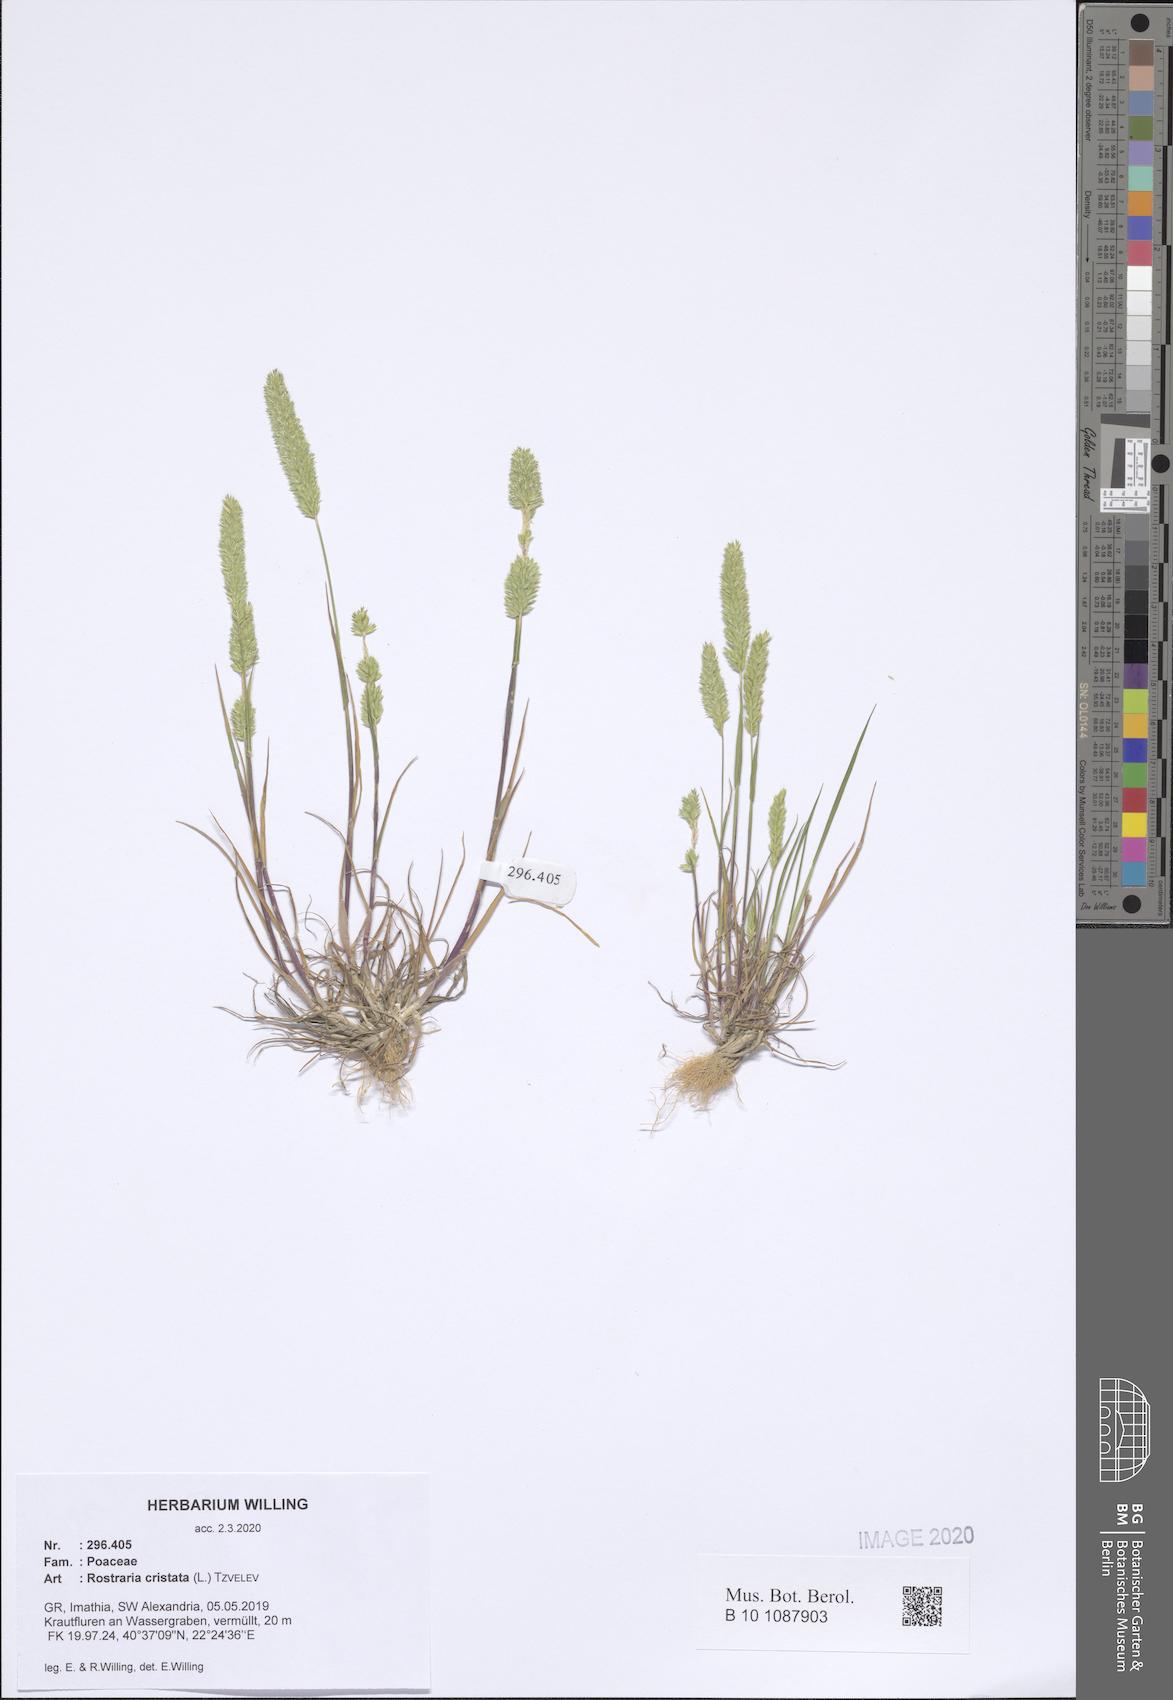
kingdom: Plantae
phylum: Tracheophyta
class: Liliopsida
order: Poales
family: Poaceae
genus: Rostraria
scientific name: Rostraria cristata
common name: Mediterranean hair-grass
